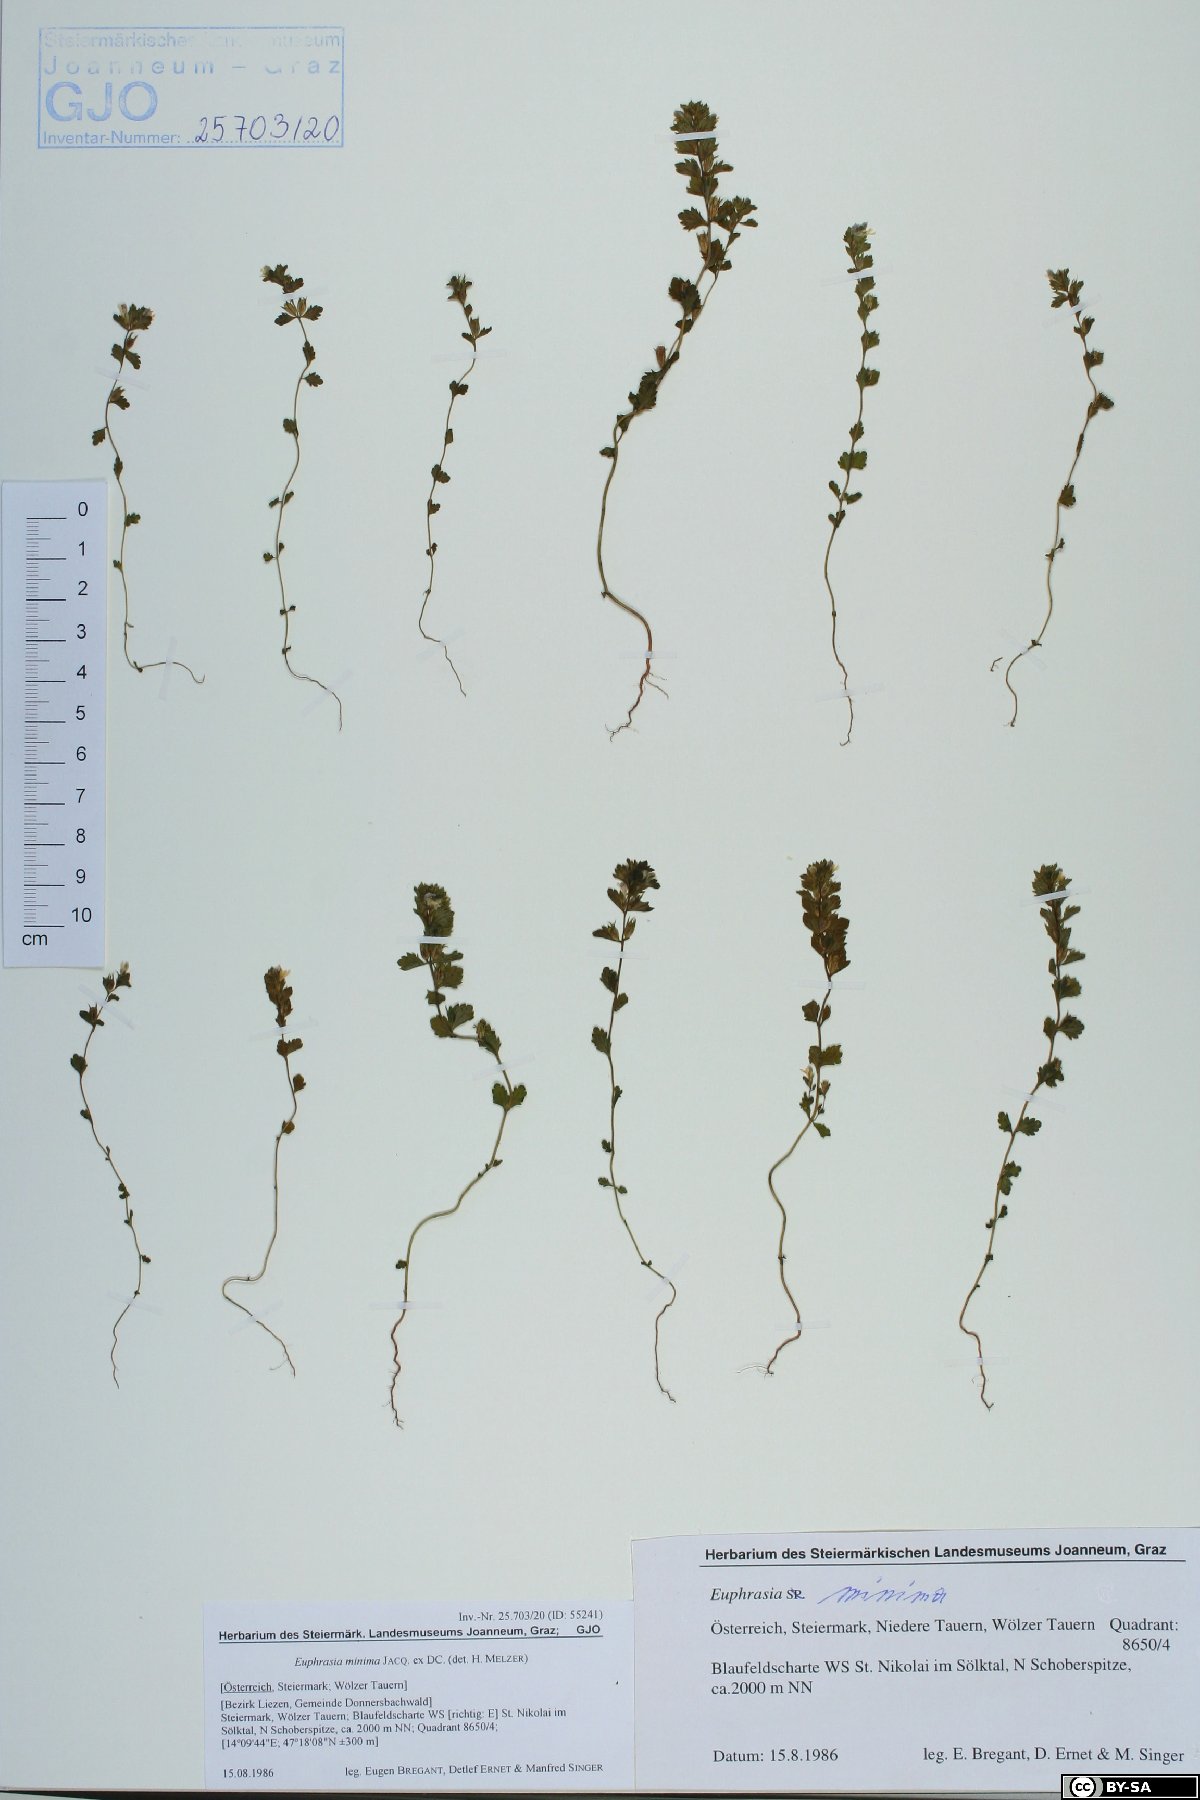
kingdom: Plantae
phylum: Tracheophyta
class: Magnoliopsida
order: Lamiales
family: Orobanchaceae
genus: Euphrasia
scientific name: Euphrasia minima
